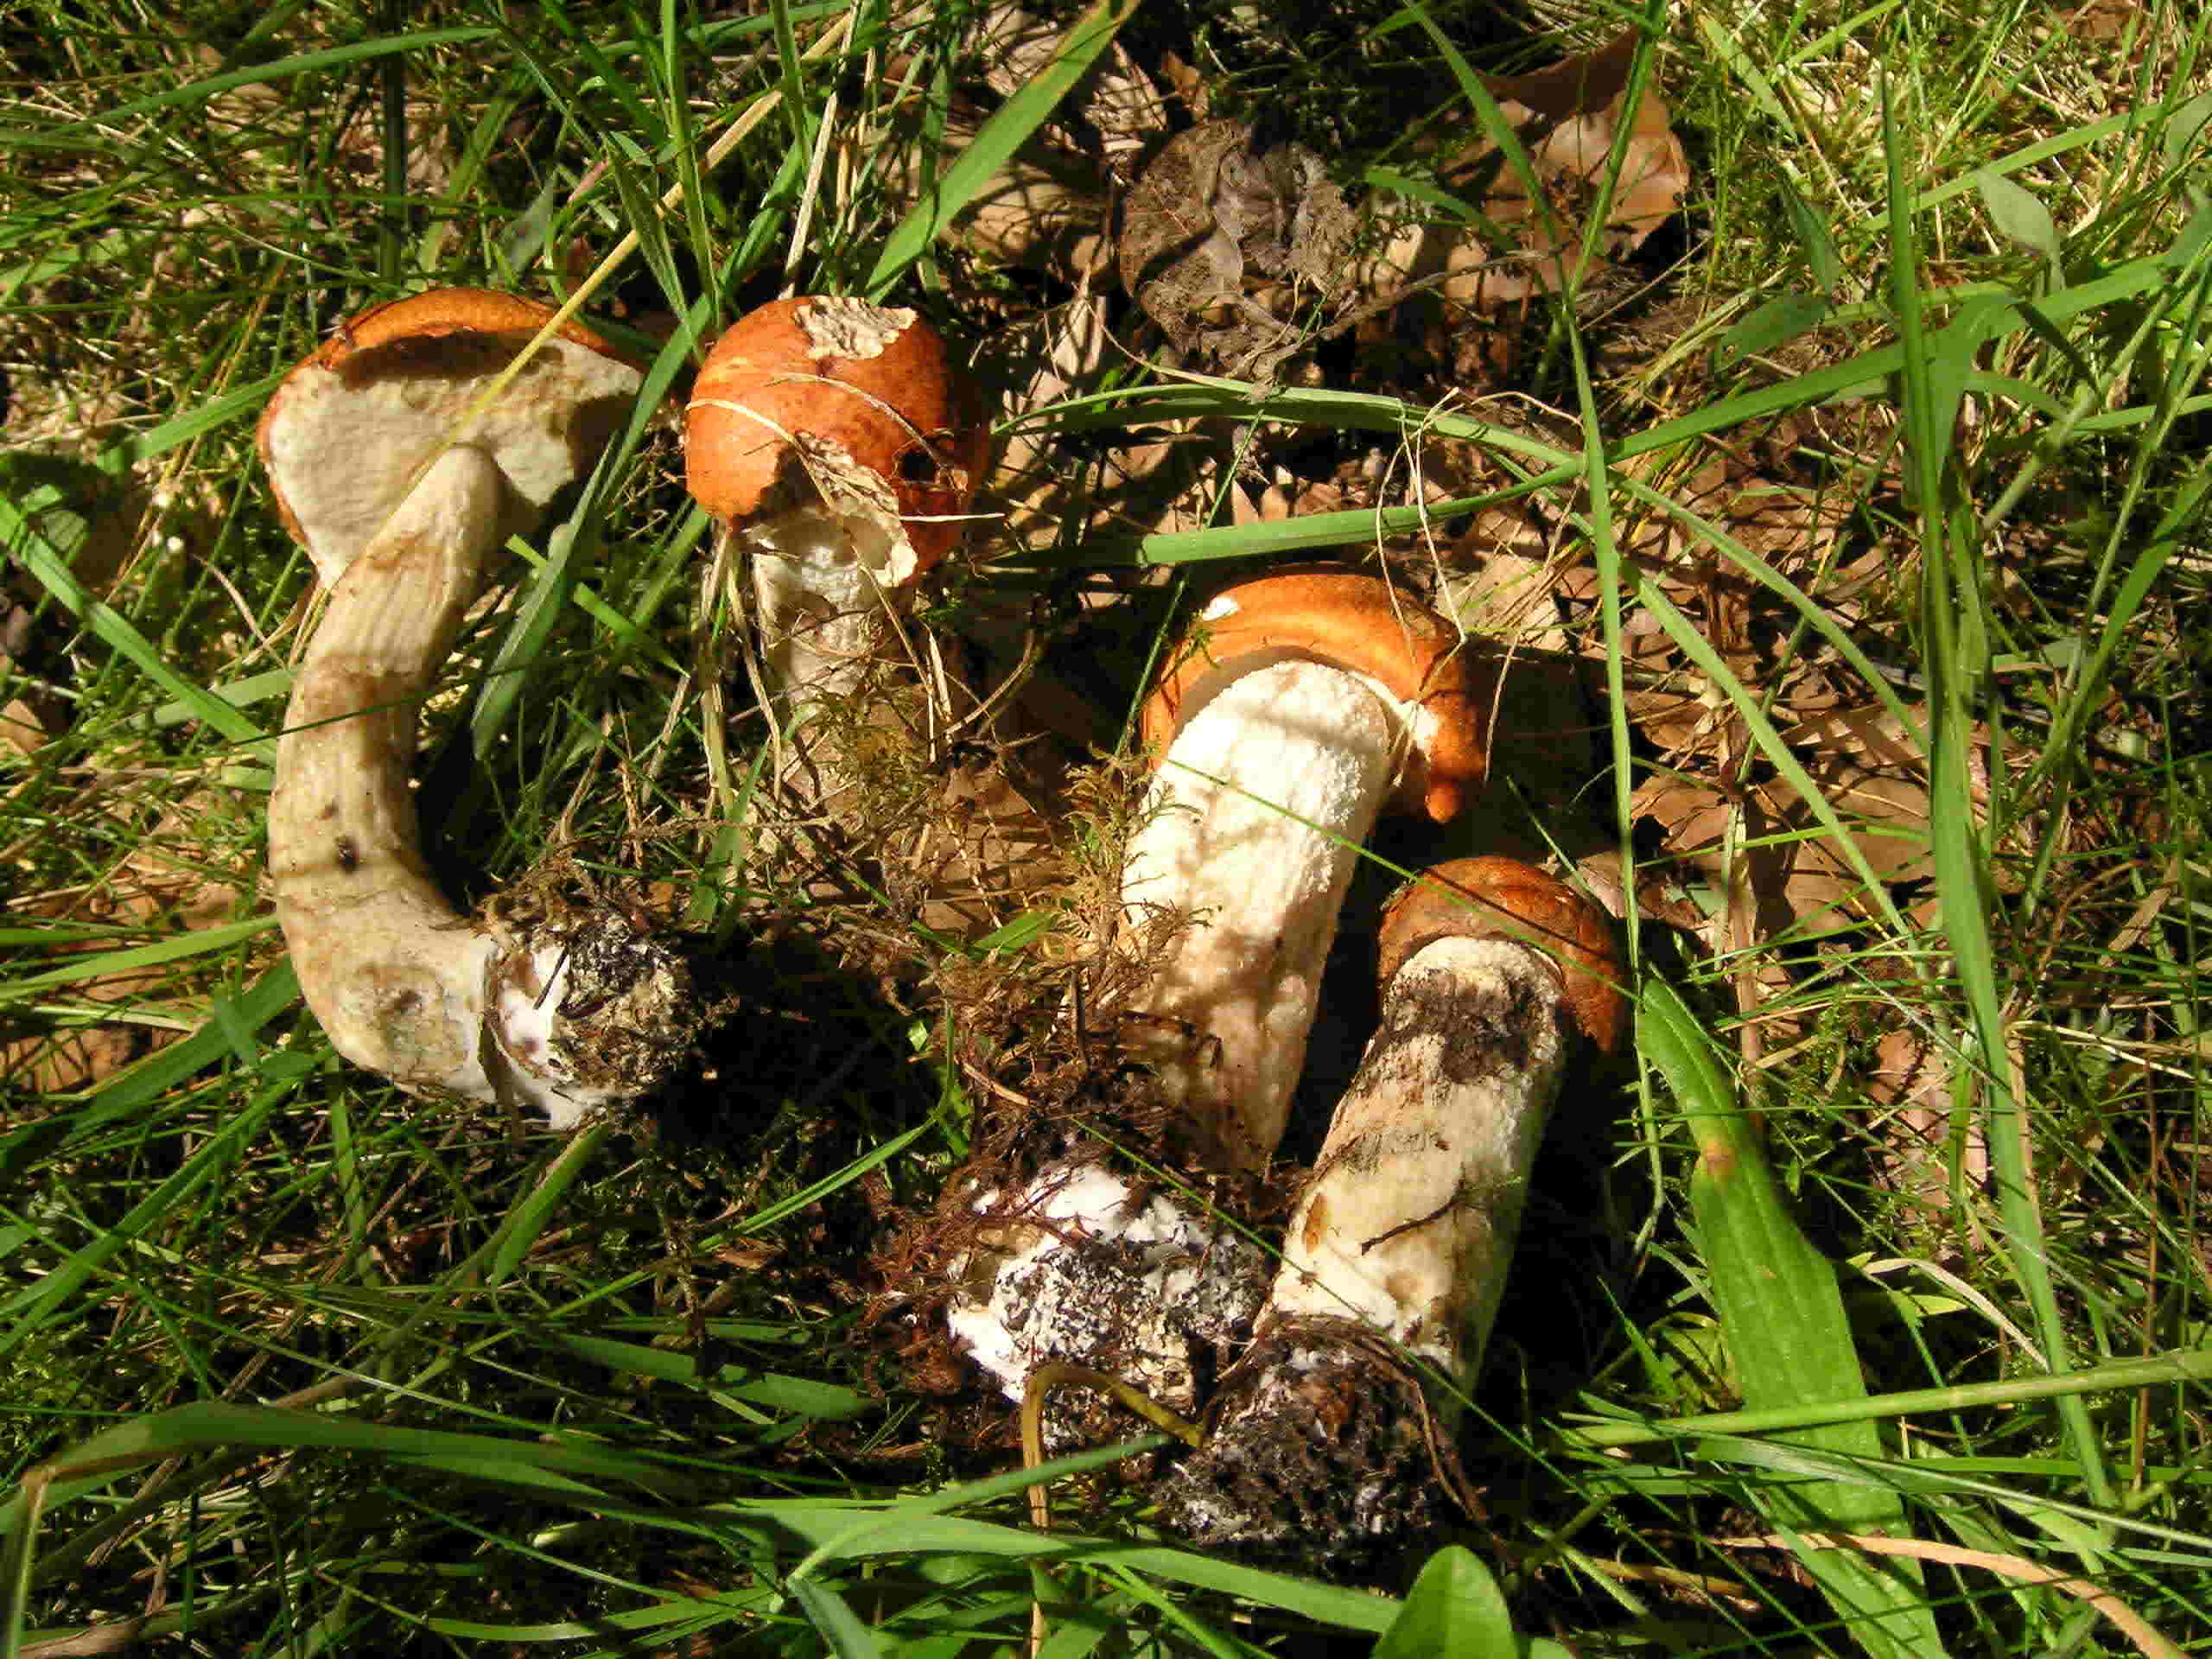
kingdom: Fungi
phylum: Basidiomycota
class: Agaricomycetes
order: Boletales
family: Boletaceae
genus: Leccinum
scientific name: Leccinum albostipitatum
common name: aspe-skælrørhat
